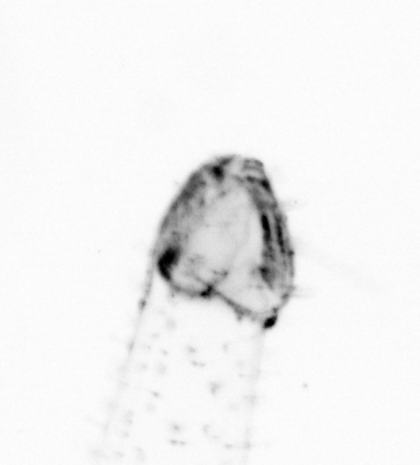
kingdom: Animalia
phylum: Chaetognatha
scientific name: Chaetognatha
